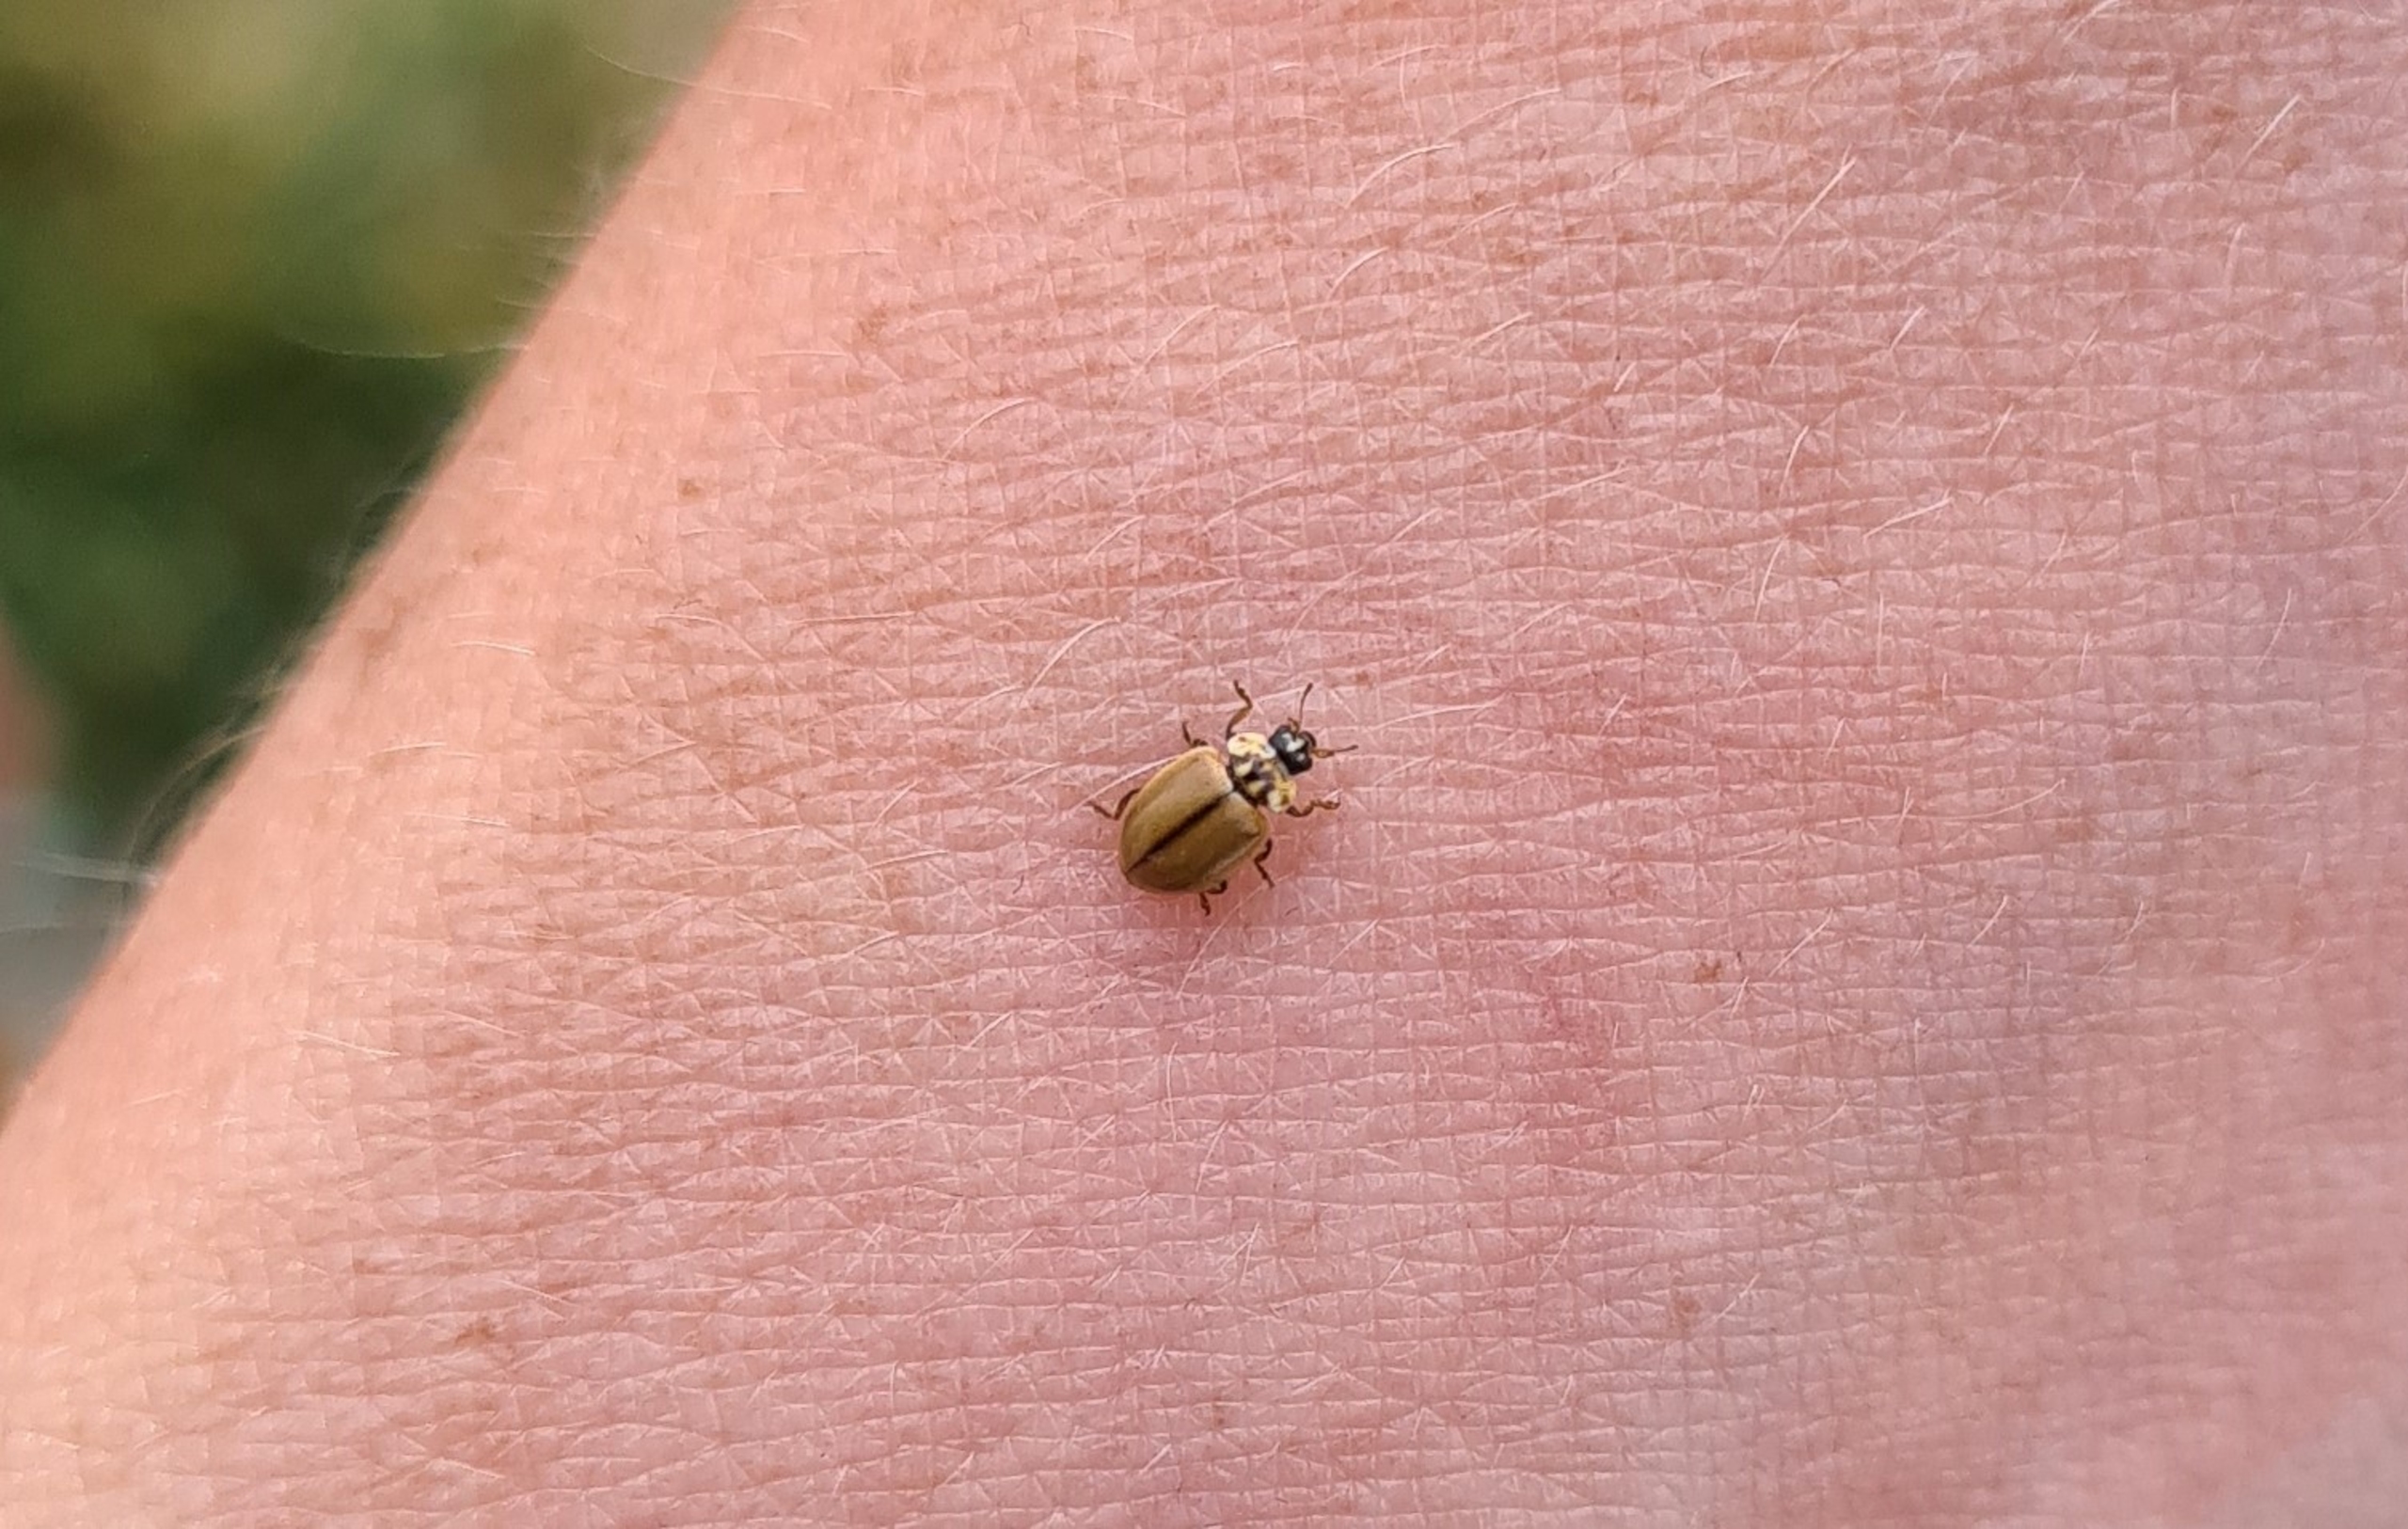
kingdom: Animalia
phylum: Arthropoda
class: Insecta
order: Coleoptera
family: Coccinellidae
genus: Aphidecta
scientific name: Aphidecta obliterata
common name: Uplettet mariehøne
